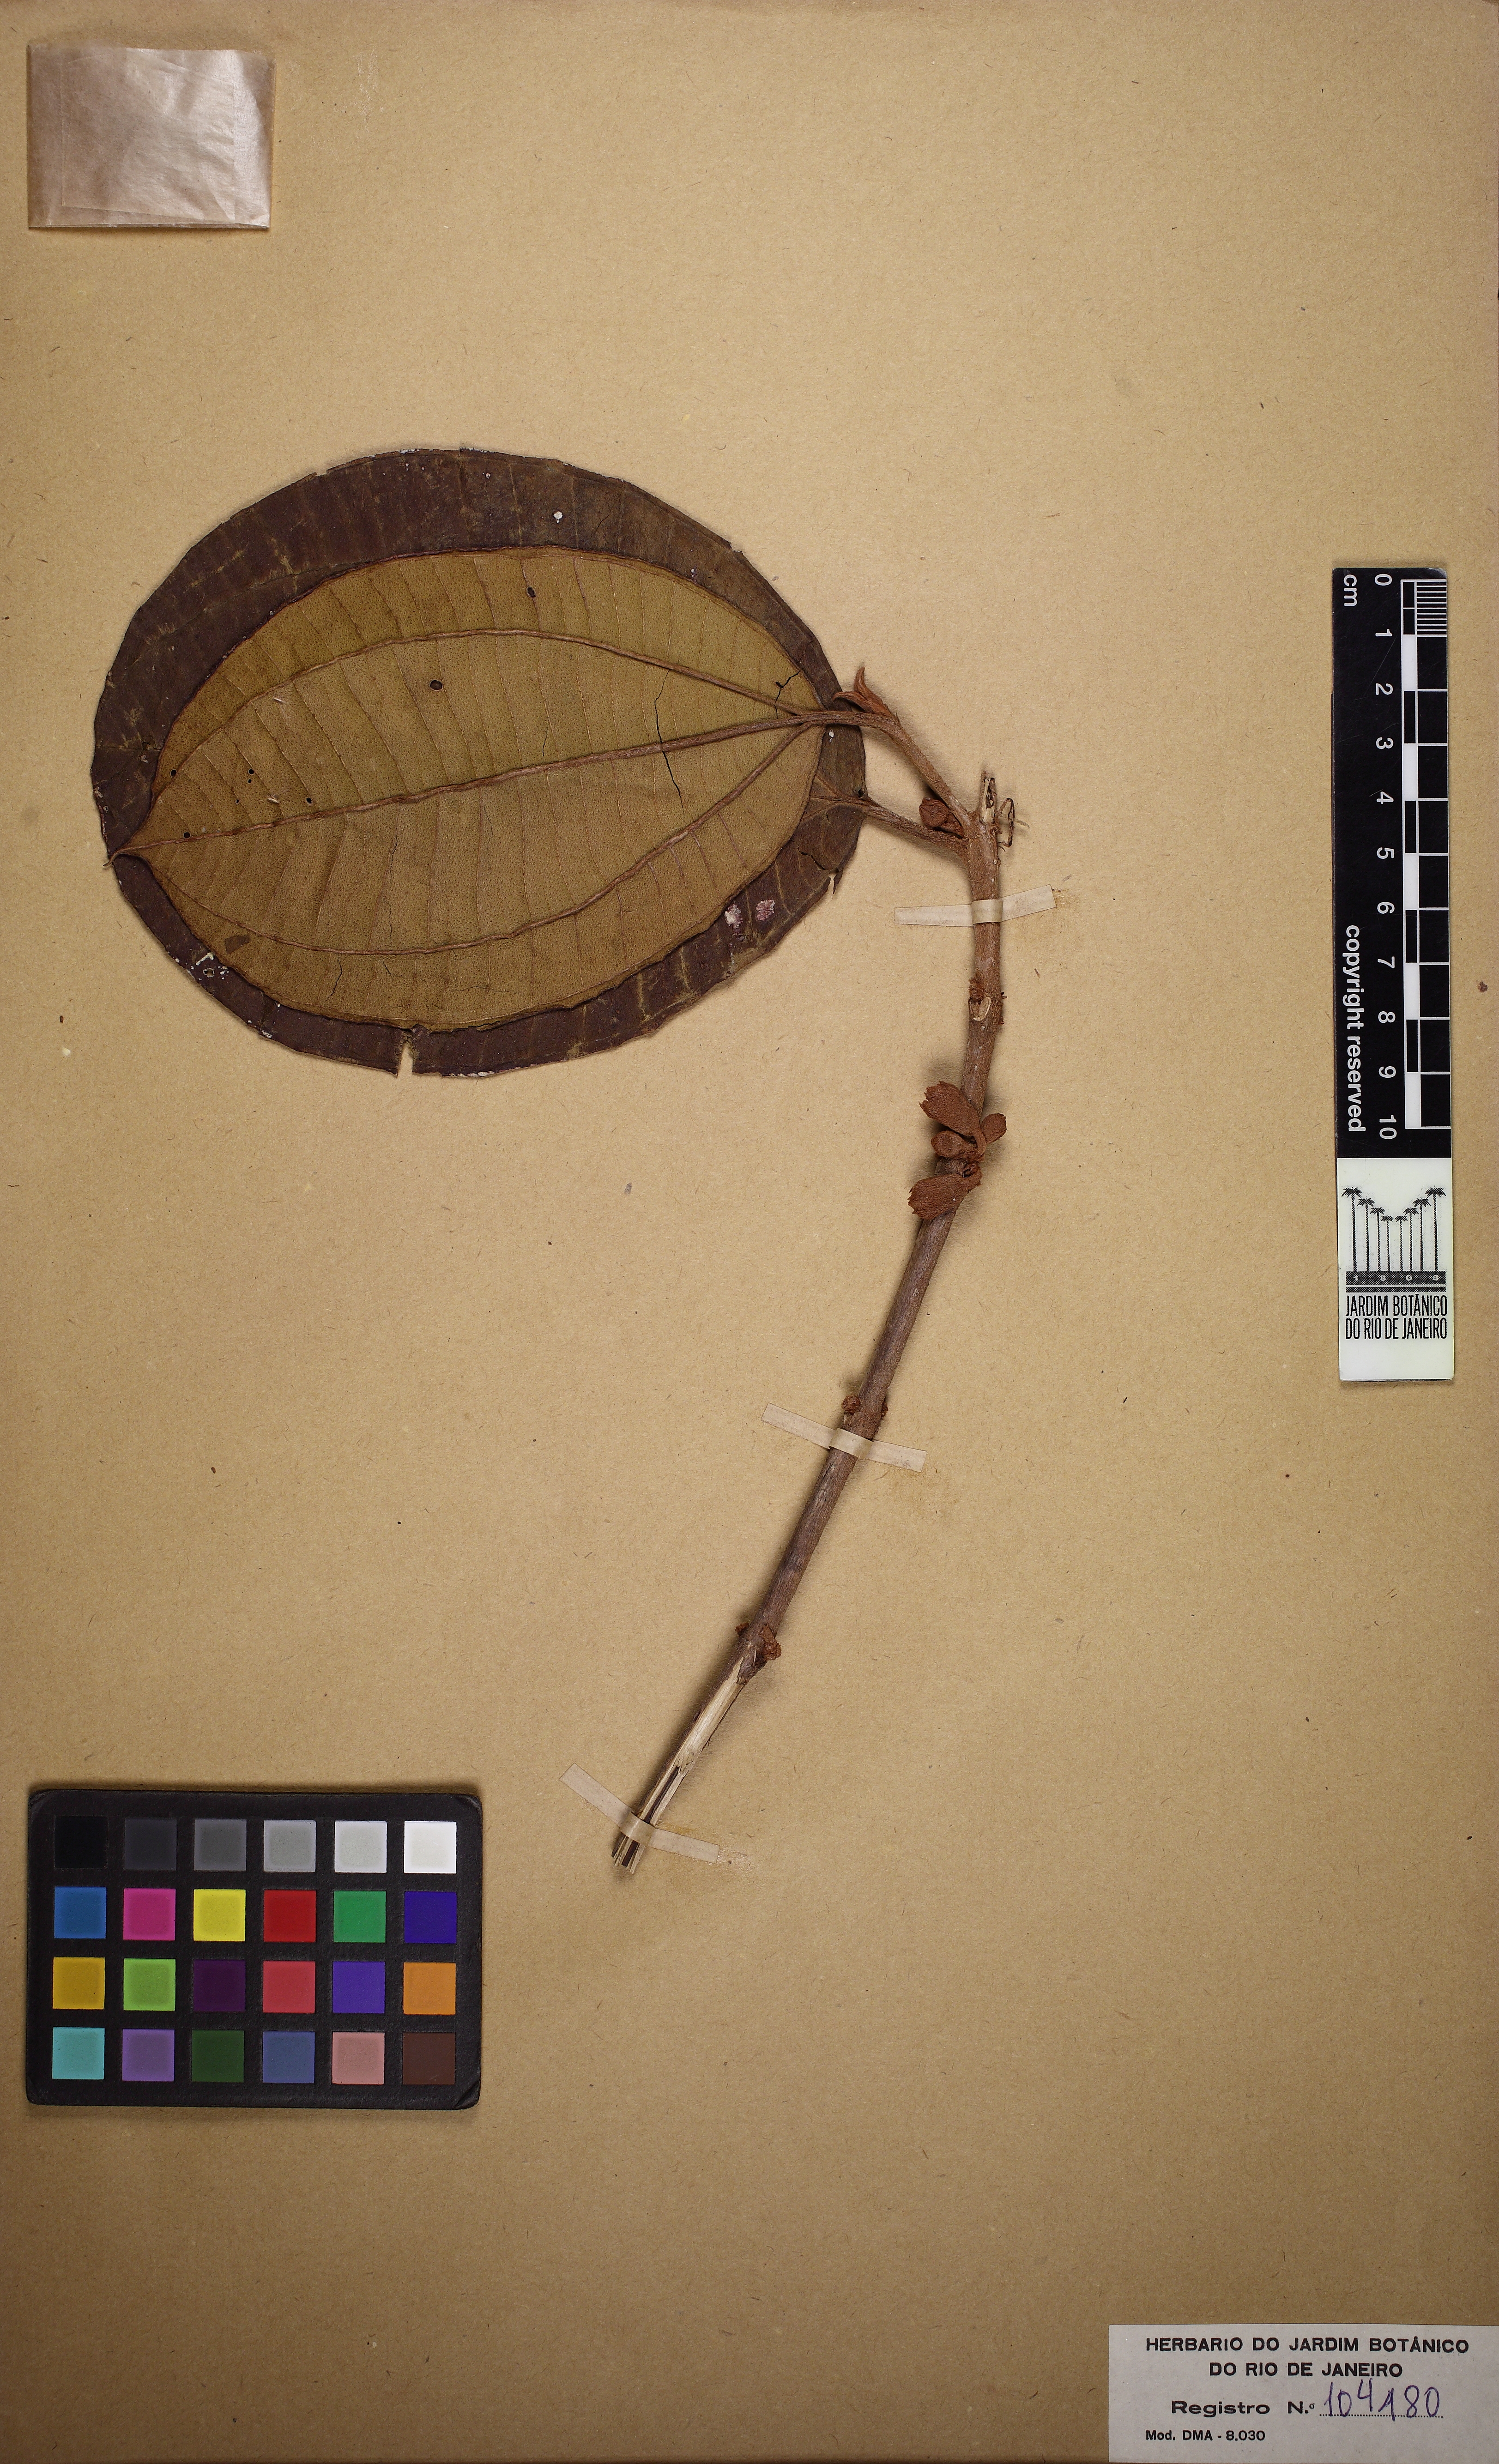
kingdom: Plantae
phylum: Tracheophyta
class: Magnoliopsida
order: Myrtales
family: Melastomataceae
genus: Henriettea
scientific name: Henriettea succosa
